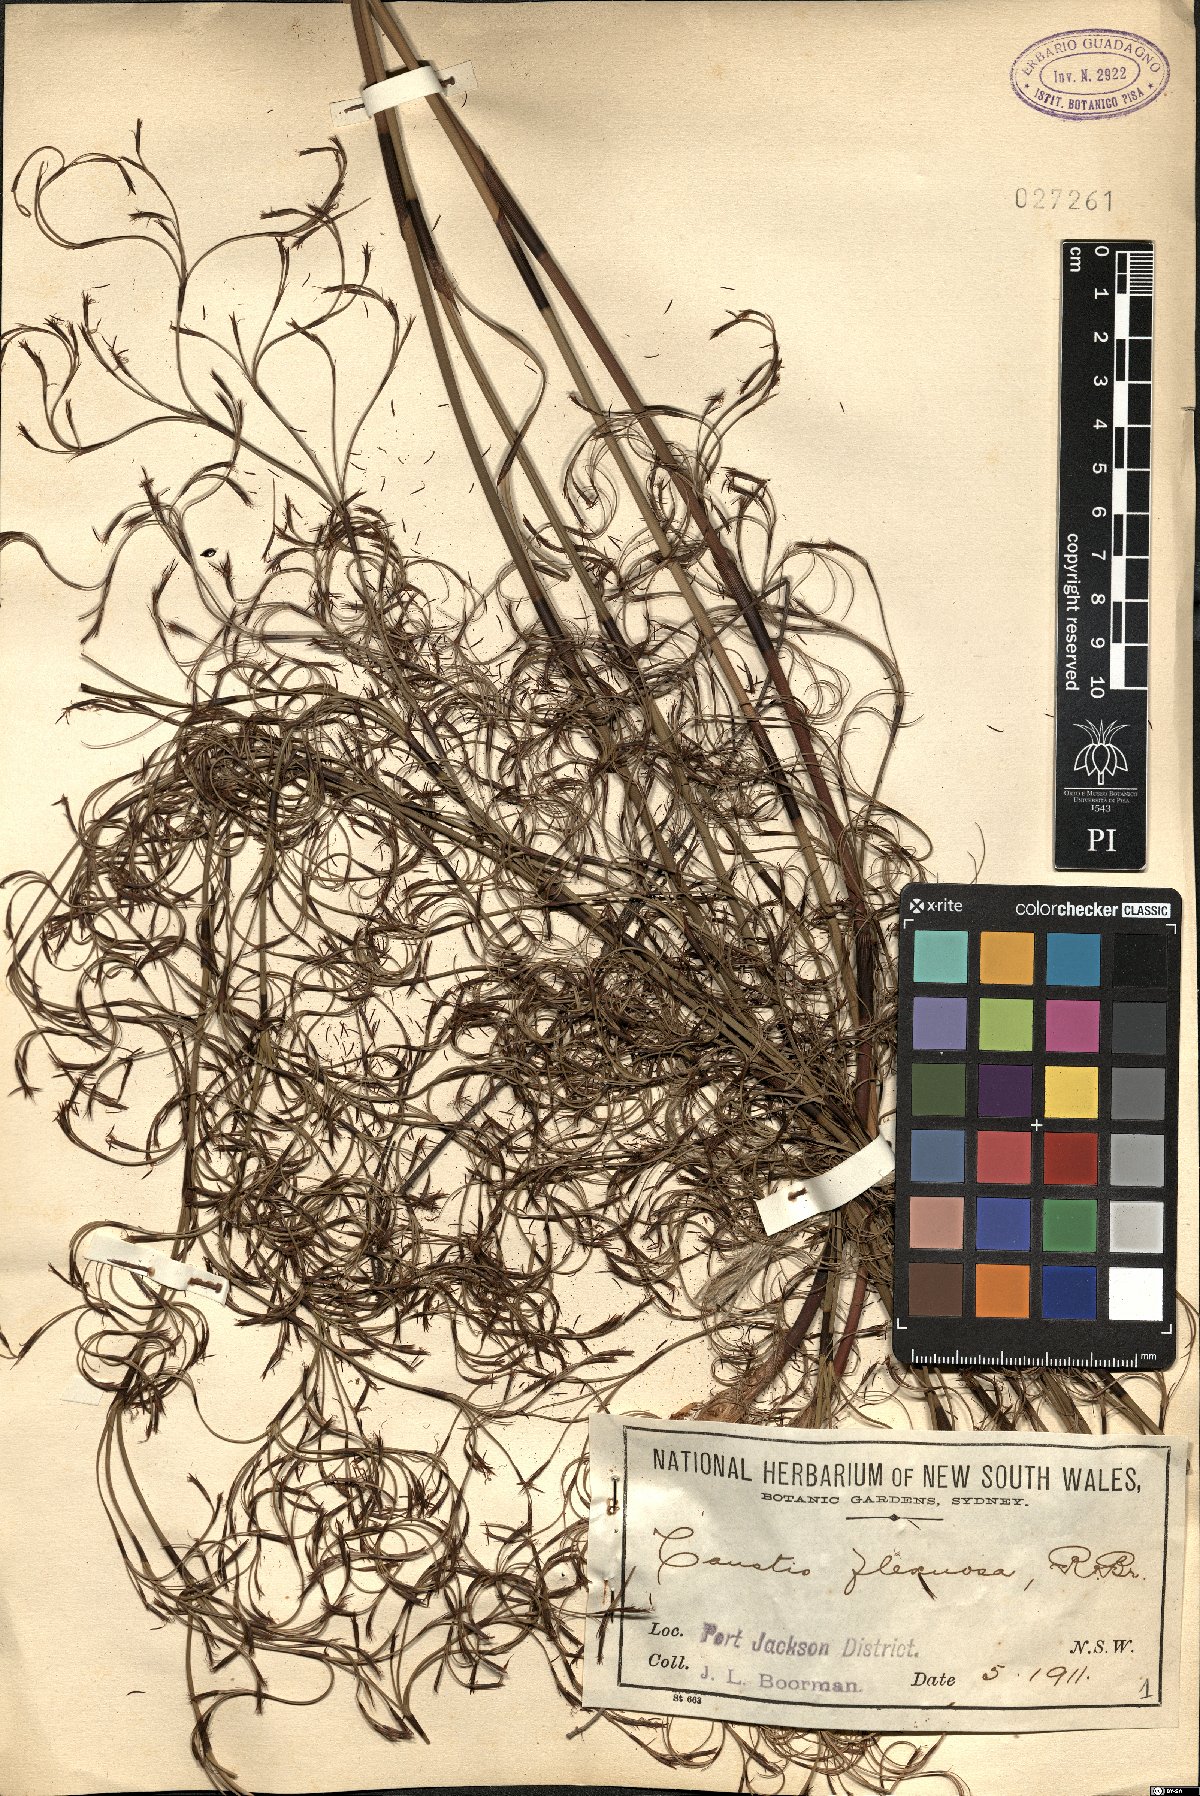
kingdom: Plantae
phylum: Tracheophyta
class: Liliopsida
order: Poales
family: Cyperaceae
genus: Caustis
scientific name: Caustis flexuosa
